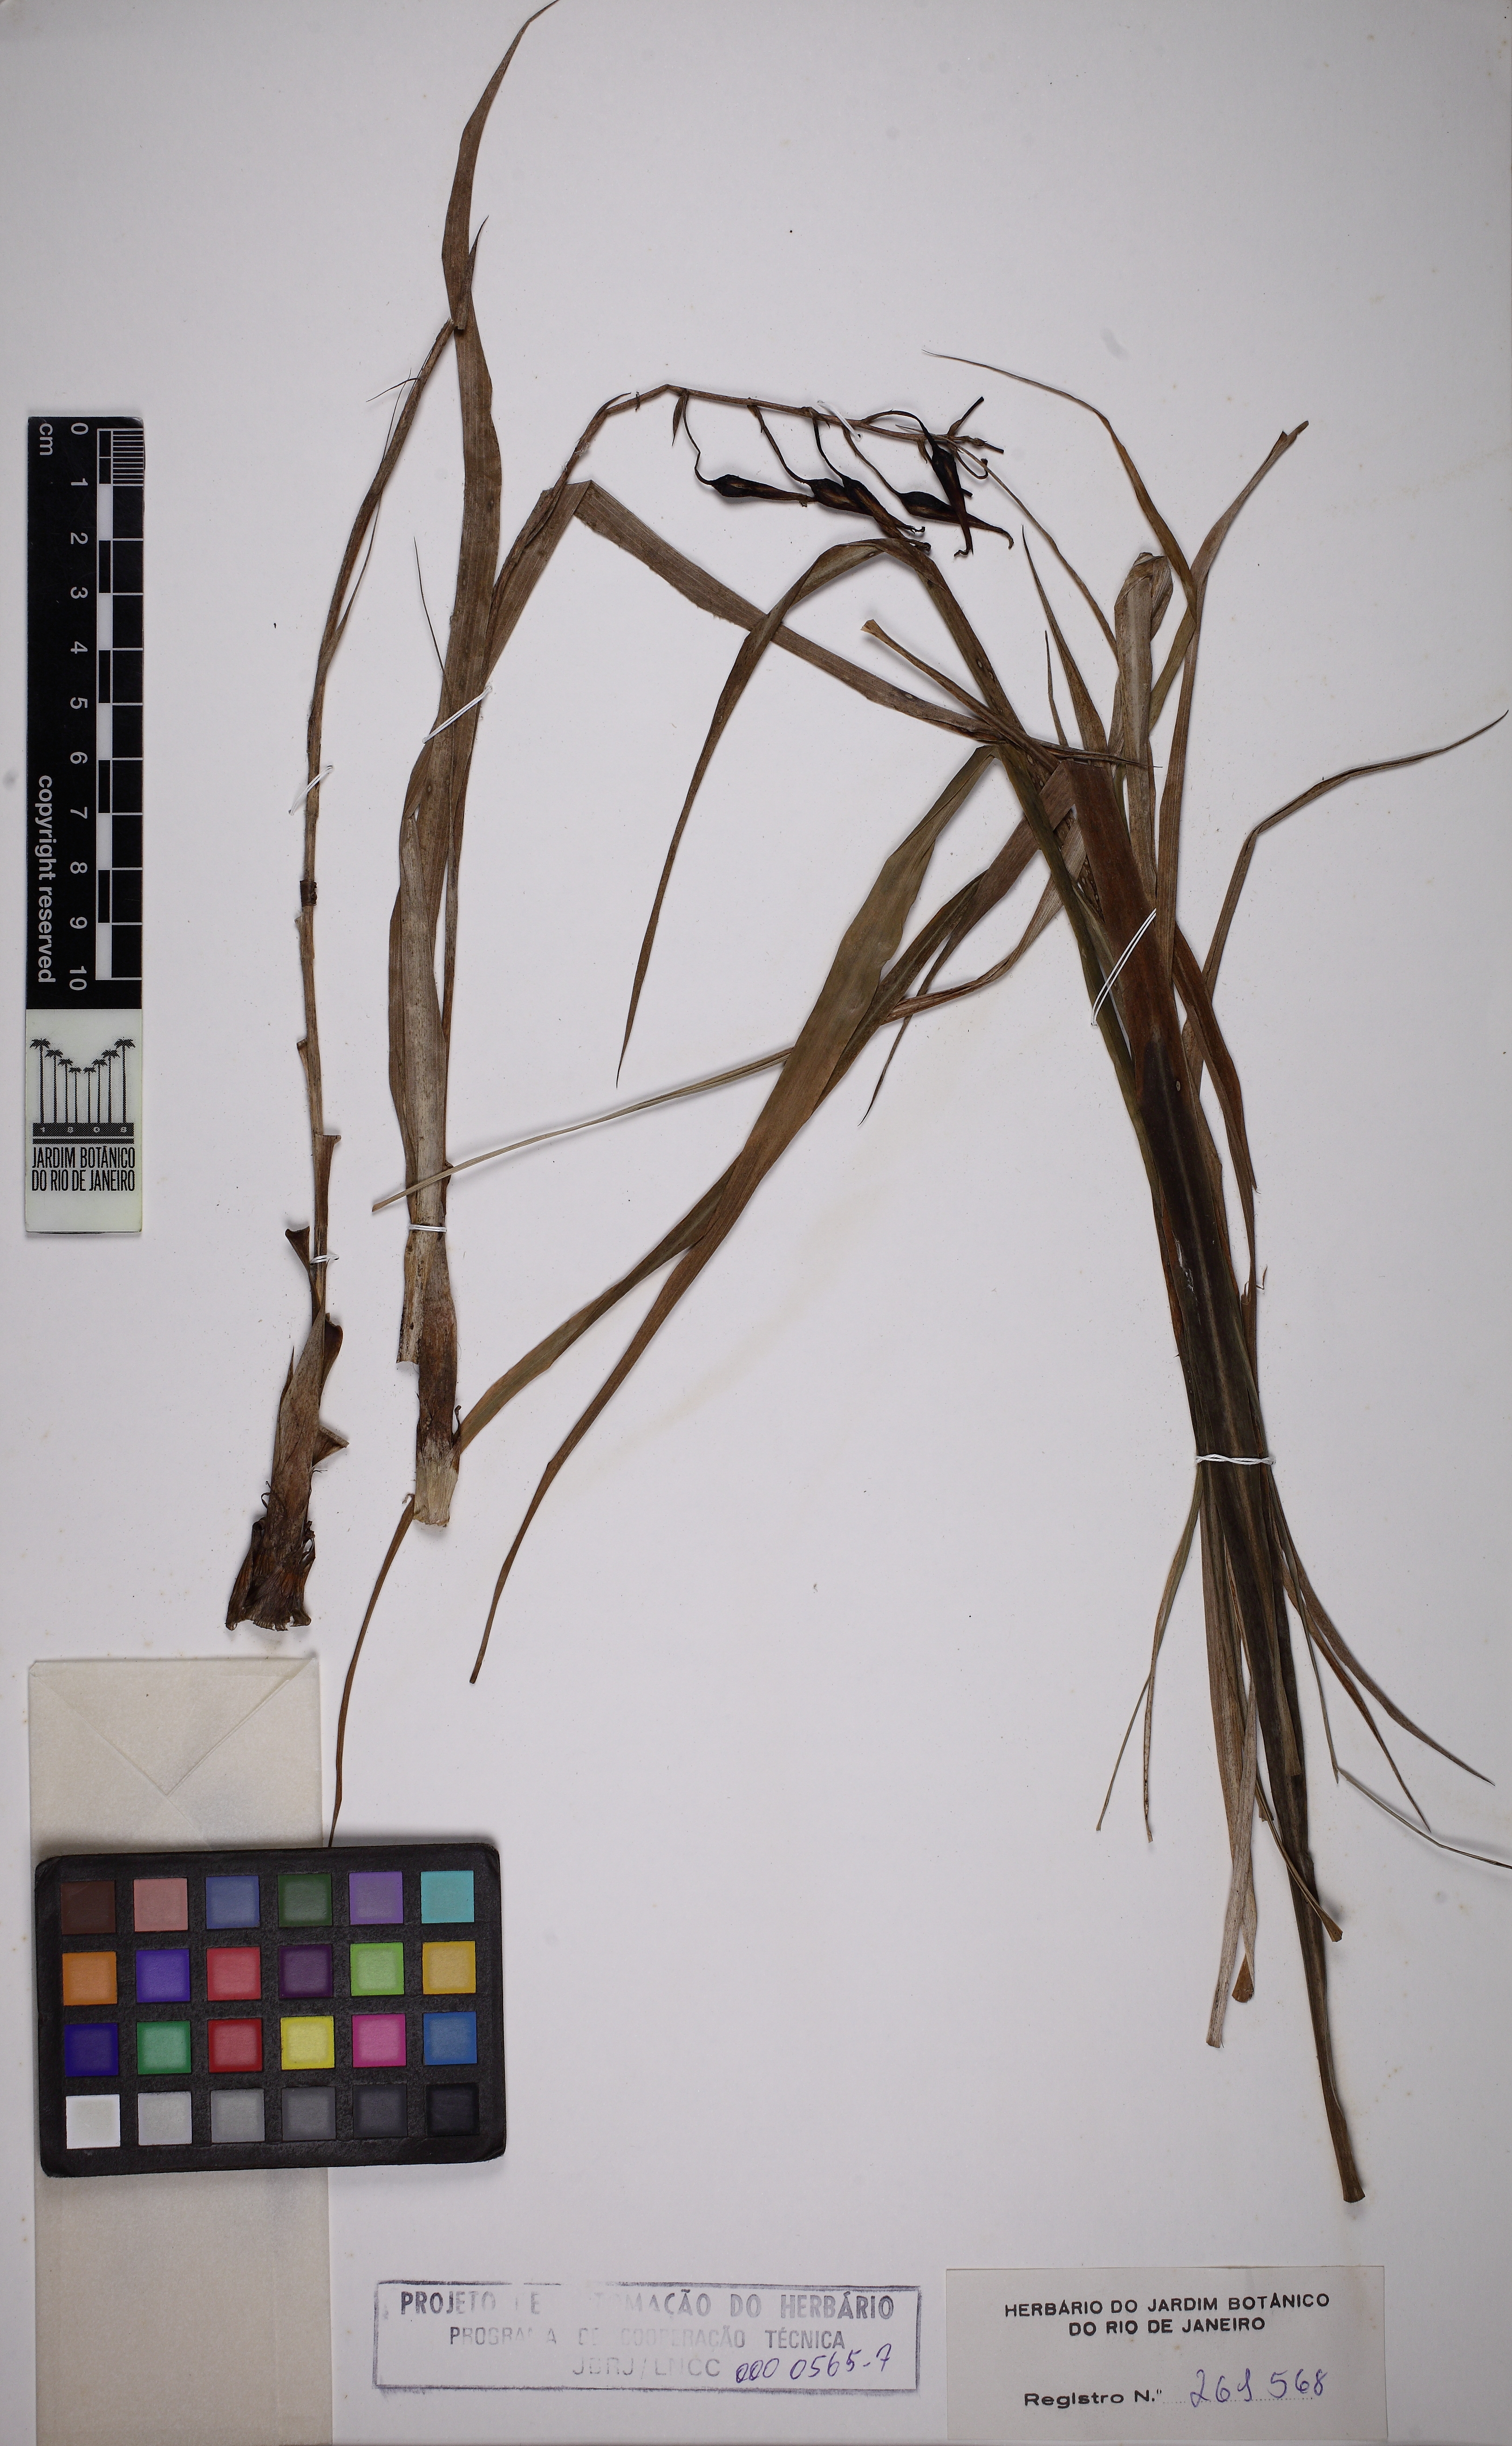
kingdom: Plantae
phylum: Tracheophyta
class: Liliopsida
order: Poales
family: Bromeliaceae
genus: Pitcairnia
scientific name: Pitcairnia torresiana
